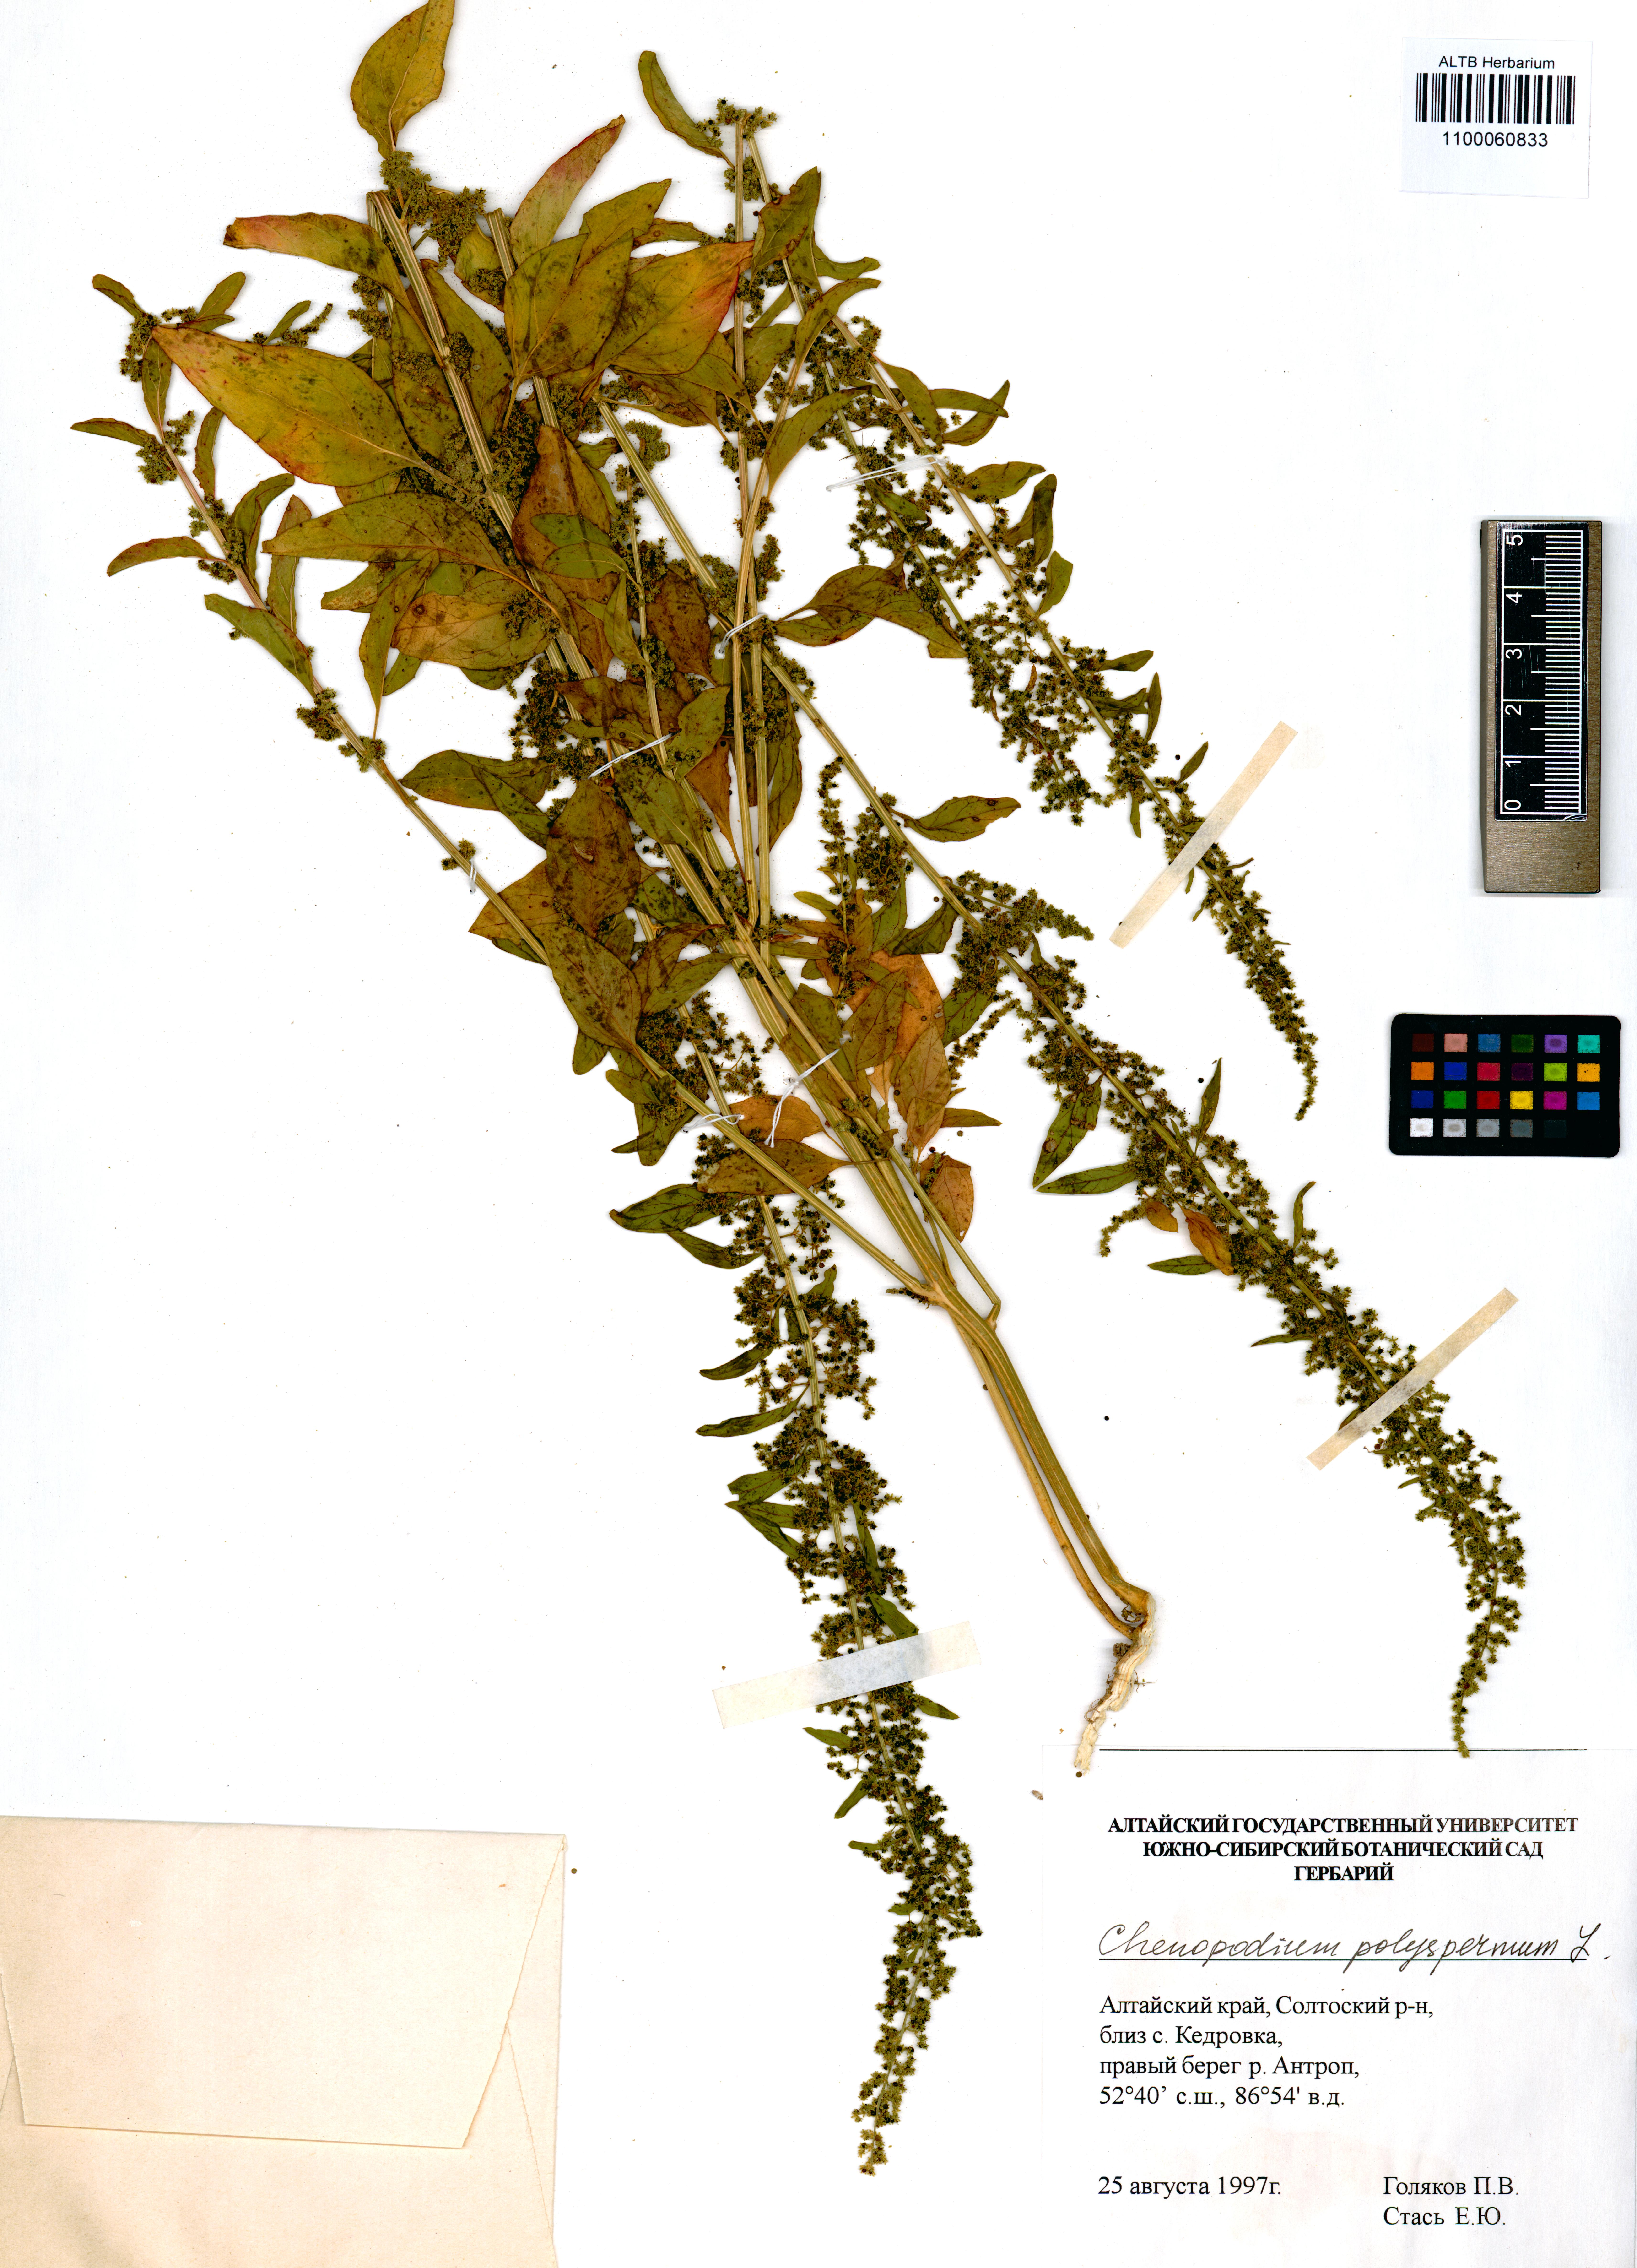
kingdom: Plantae
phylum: Tracheophyta
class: Magnoliopsida
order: Caryophyllales
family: Amaranthaceae
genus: Lipandra
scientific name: Lipandra polysperma
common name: Many-seed goosefoot
